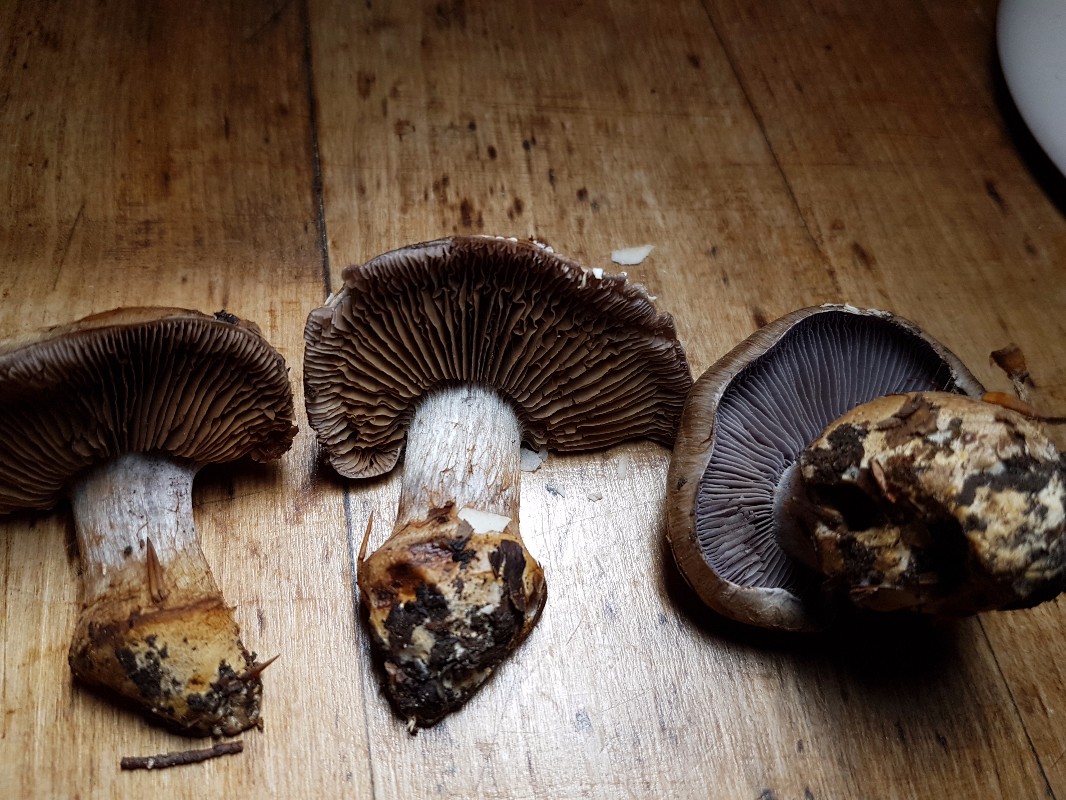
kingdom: Fungi
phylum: Basidiomycota
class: Agaricomycetes
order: Agaricales
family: Cortinariaceae
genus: Phlegmacium
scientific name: Phlegmacium luhmannii
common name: musegrå slørhat
